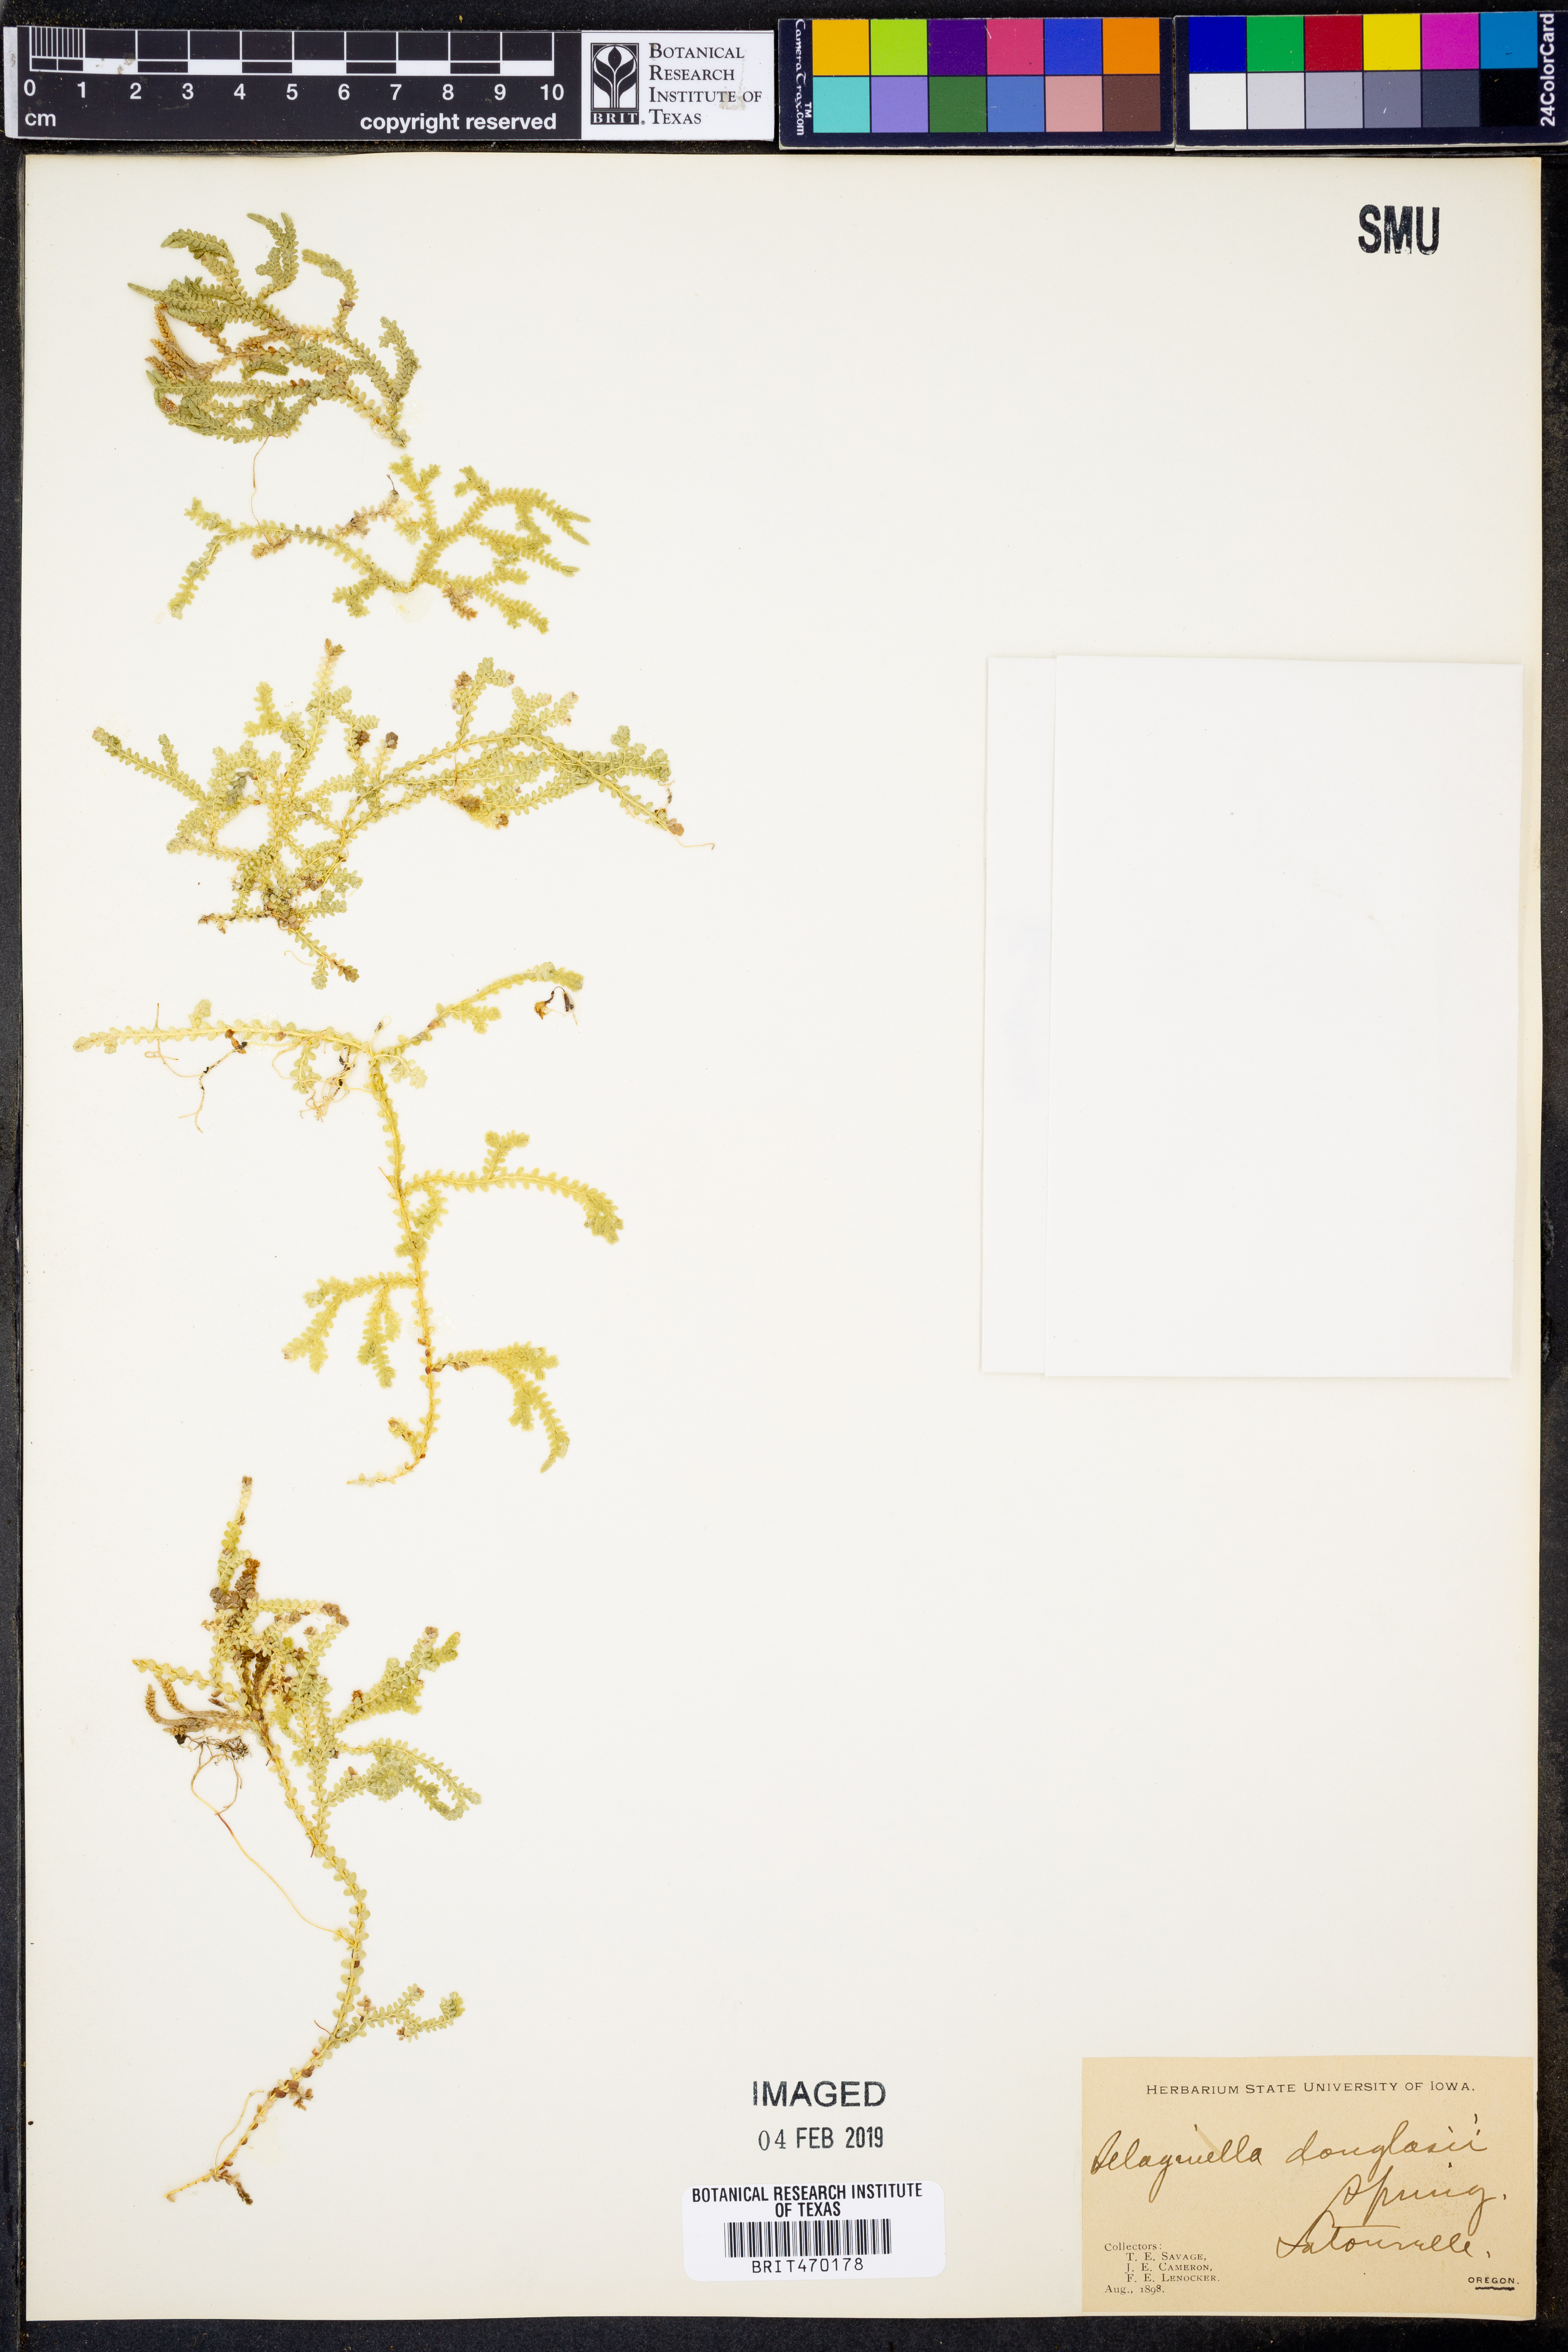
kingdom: Plantae
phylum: Tracheophyta
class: Lycopodiopsida
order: Selaginellales
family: Selaginellaceae
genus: Selaginella
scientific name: Selaginella douglasii
